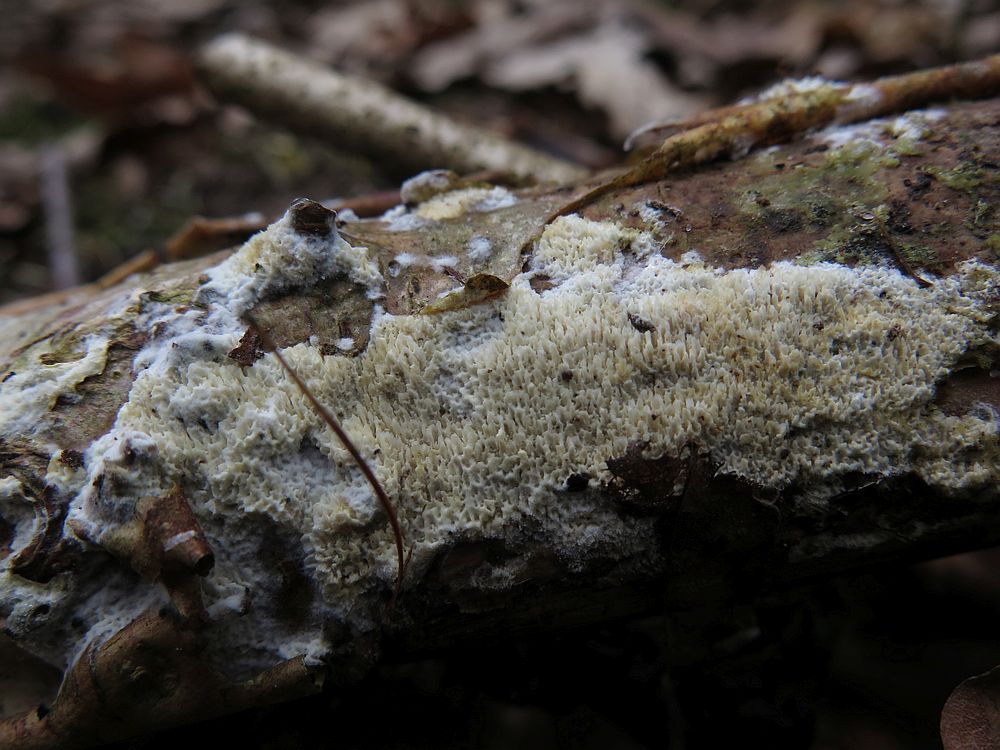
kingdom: Fungi
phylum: Basidiomycota
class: Agaricomycetes
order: Hymenochaetales
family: Schizoporaceae
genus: Schizopora
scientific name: Schizopora paradoxa
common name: hvid tandsvamp
